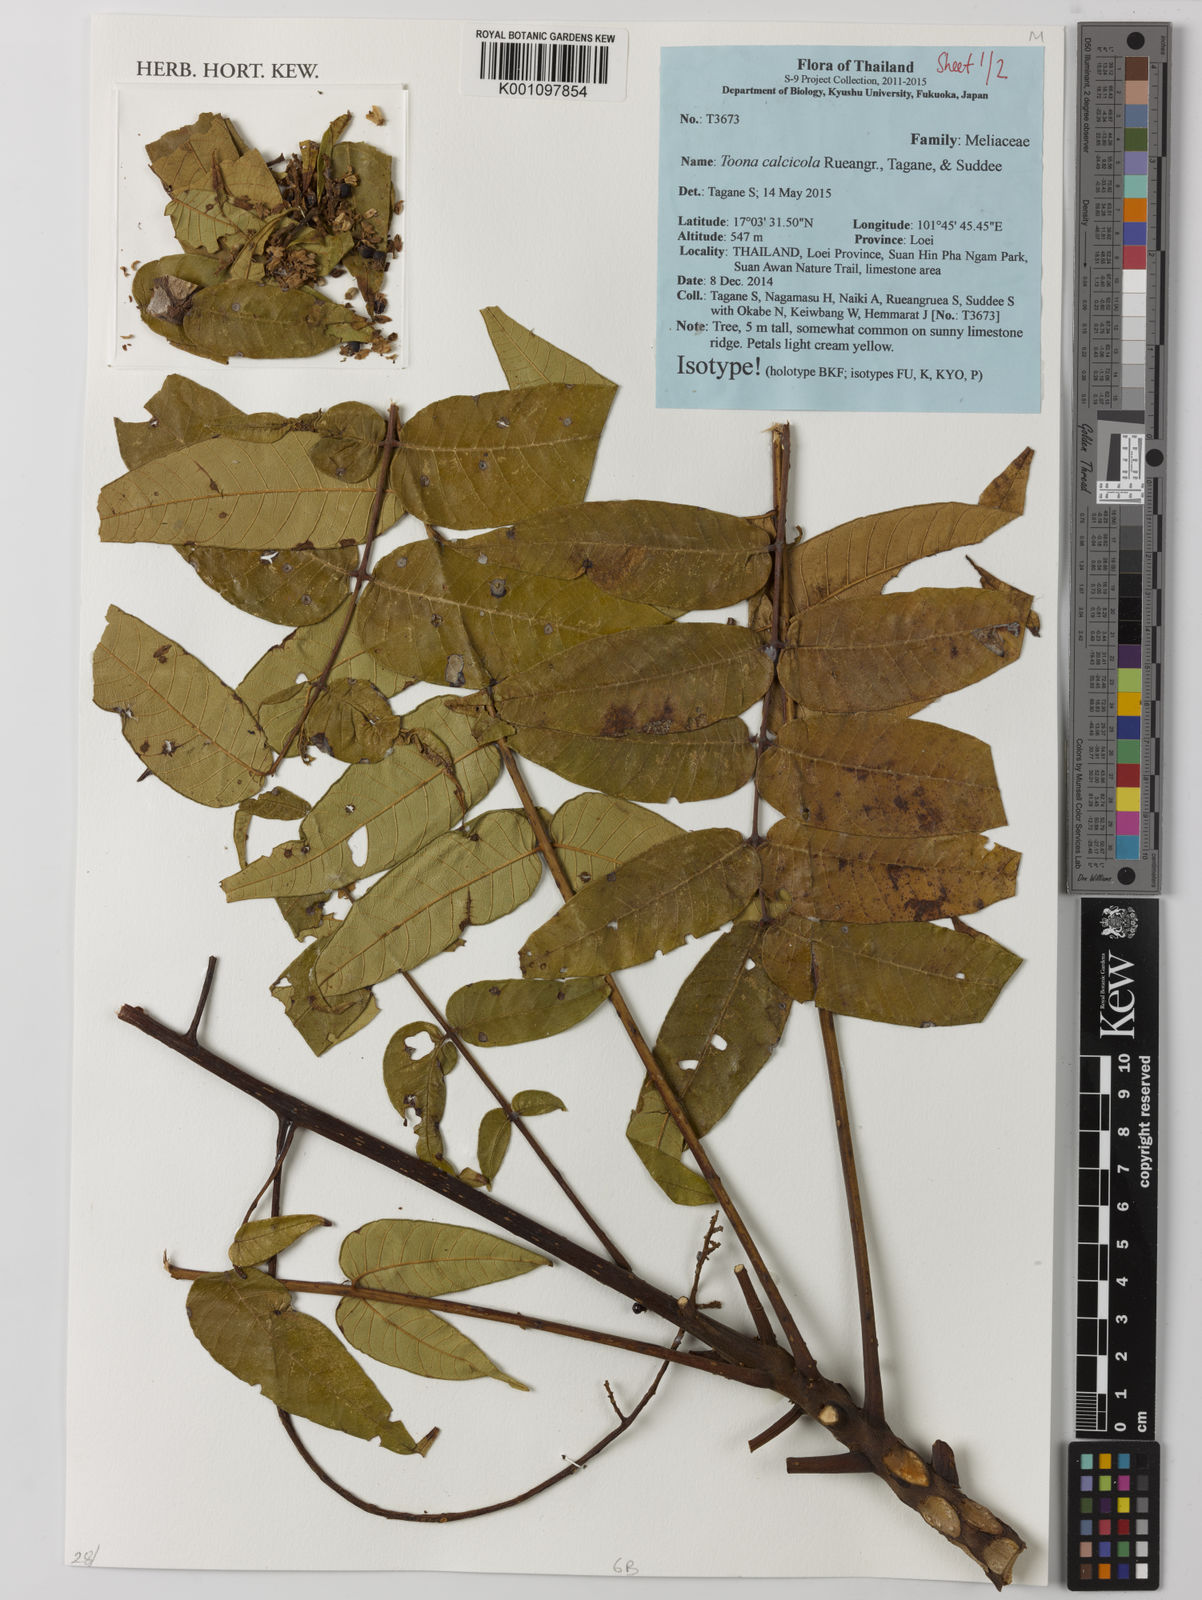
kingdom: Plantae
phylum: Tracheophyta
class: Magnoliopsida
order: Sapindales
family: Meliaceae
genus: Toona
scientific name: Toona calcicola
